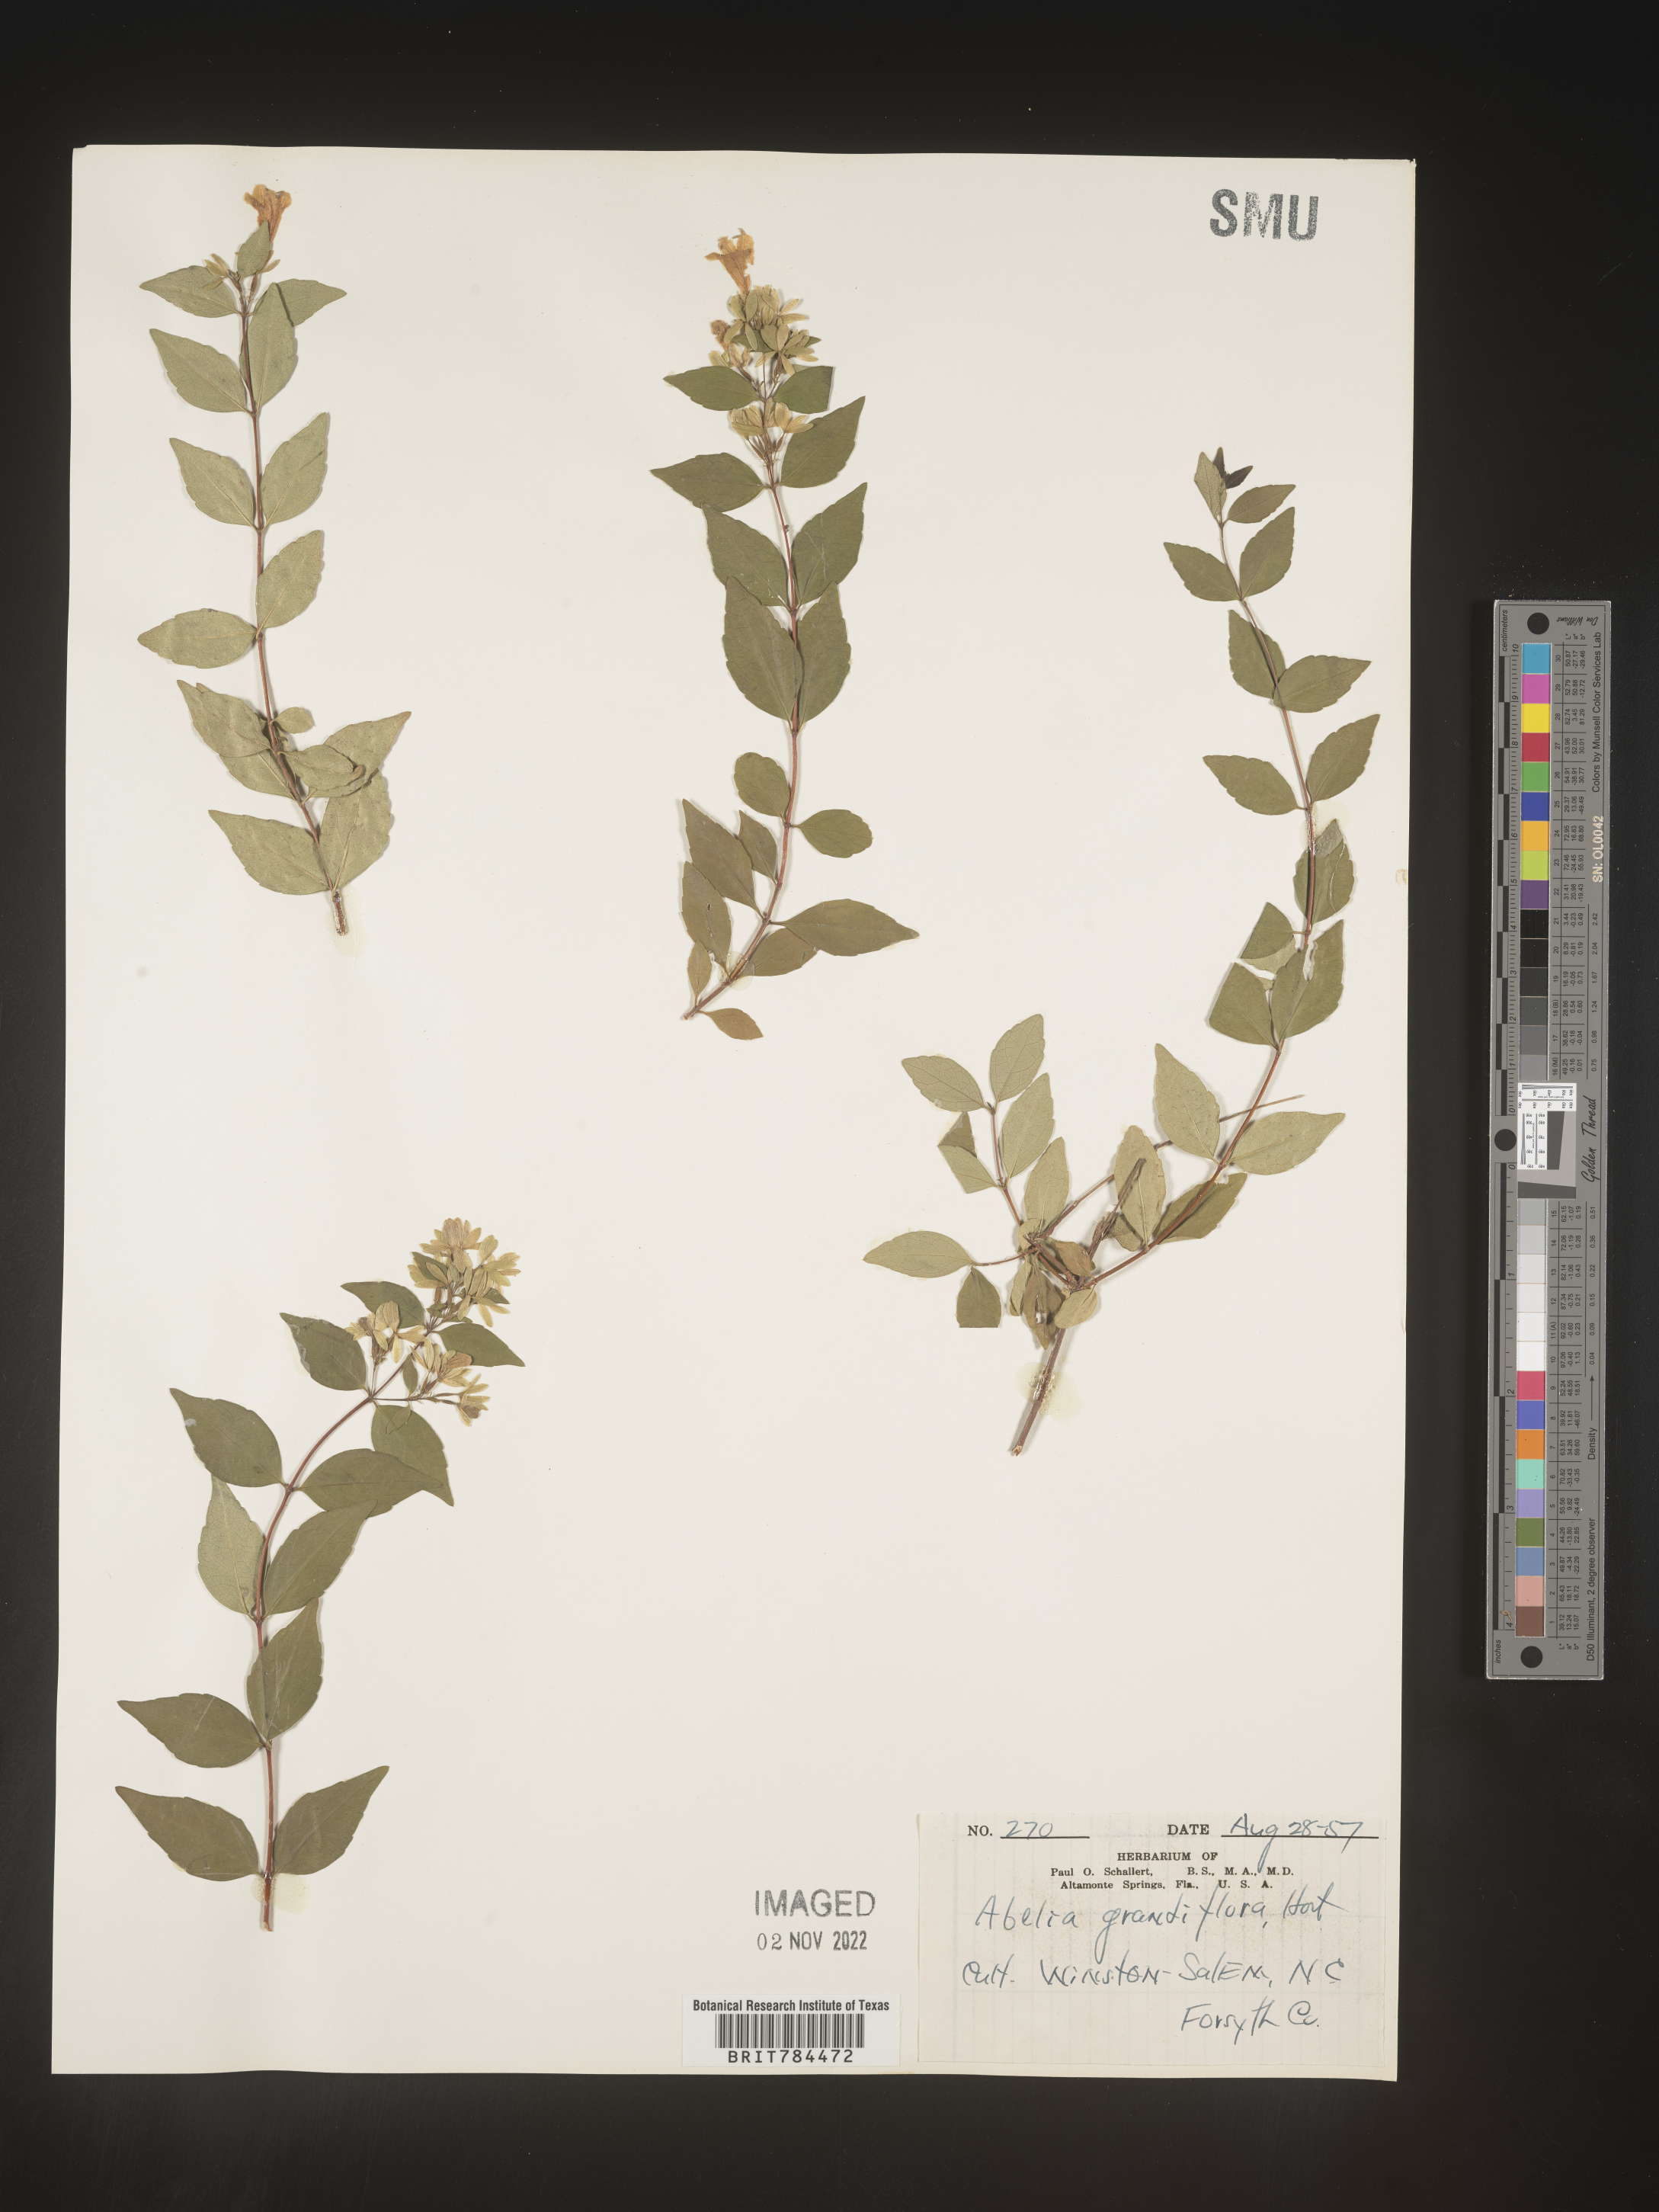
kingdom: Plantae
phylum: Tracheophyta
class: Magnoliopsida
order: Dipsacales
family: Caprifoliaceae
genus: Abelia
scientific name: Abelia
